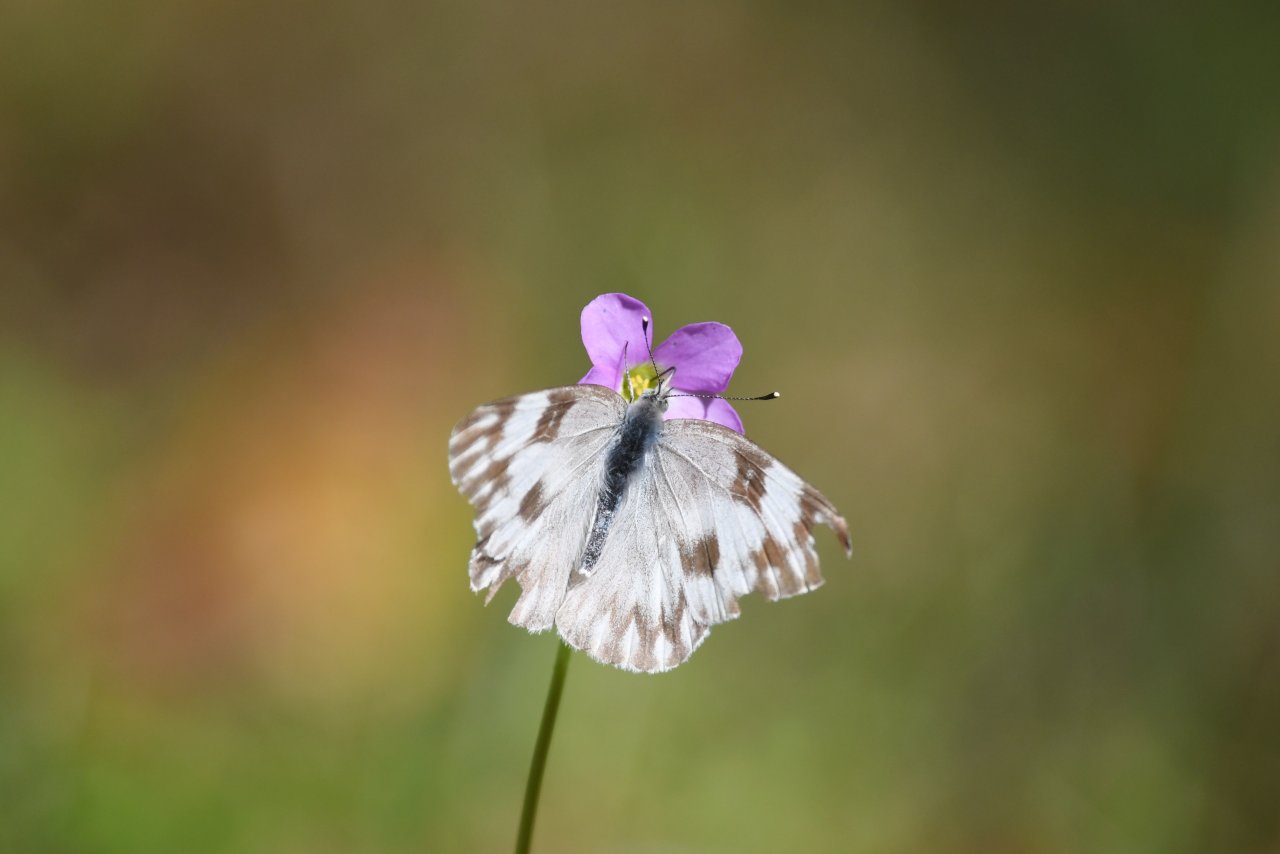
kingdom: Animalia
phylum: Arthropoda
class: Insecta
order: Lepidoptera
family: Pieridae
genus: Pontia
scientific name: Pontia protodice
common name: Checkered White
